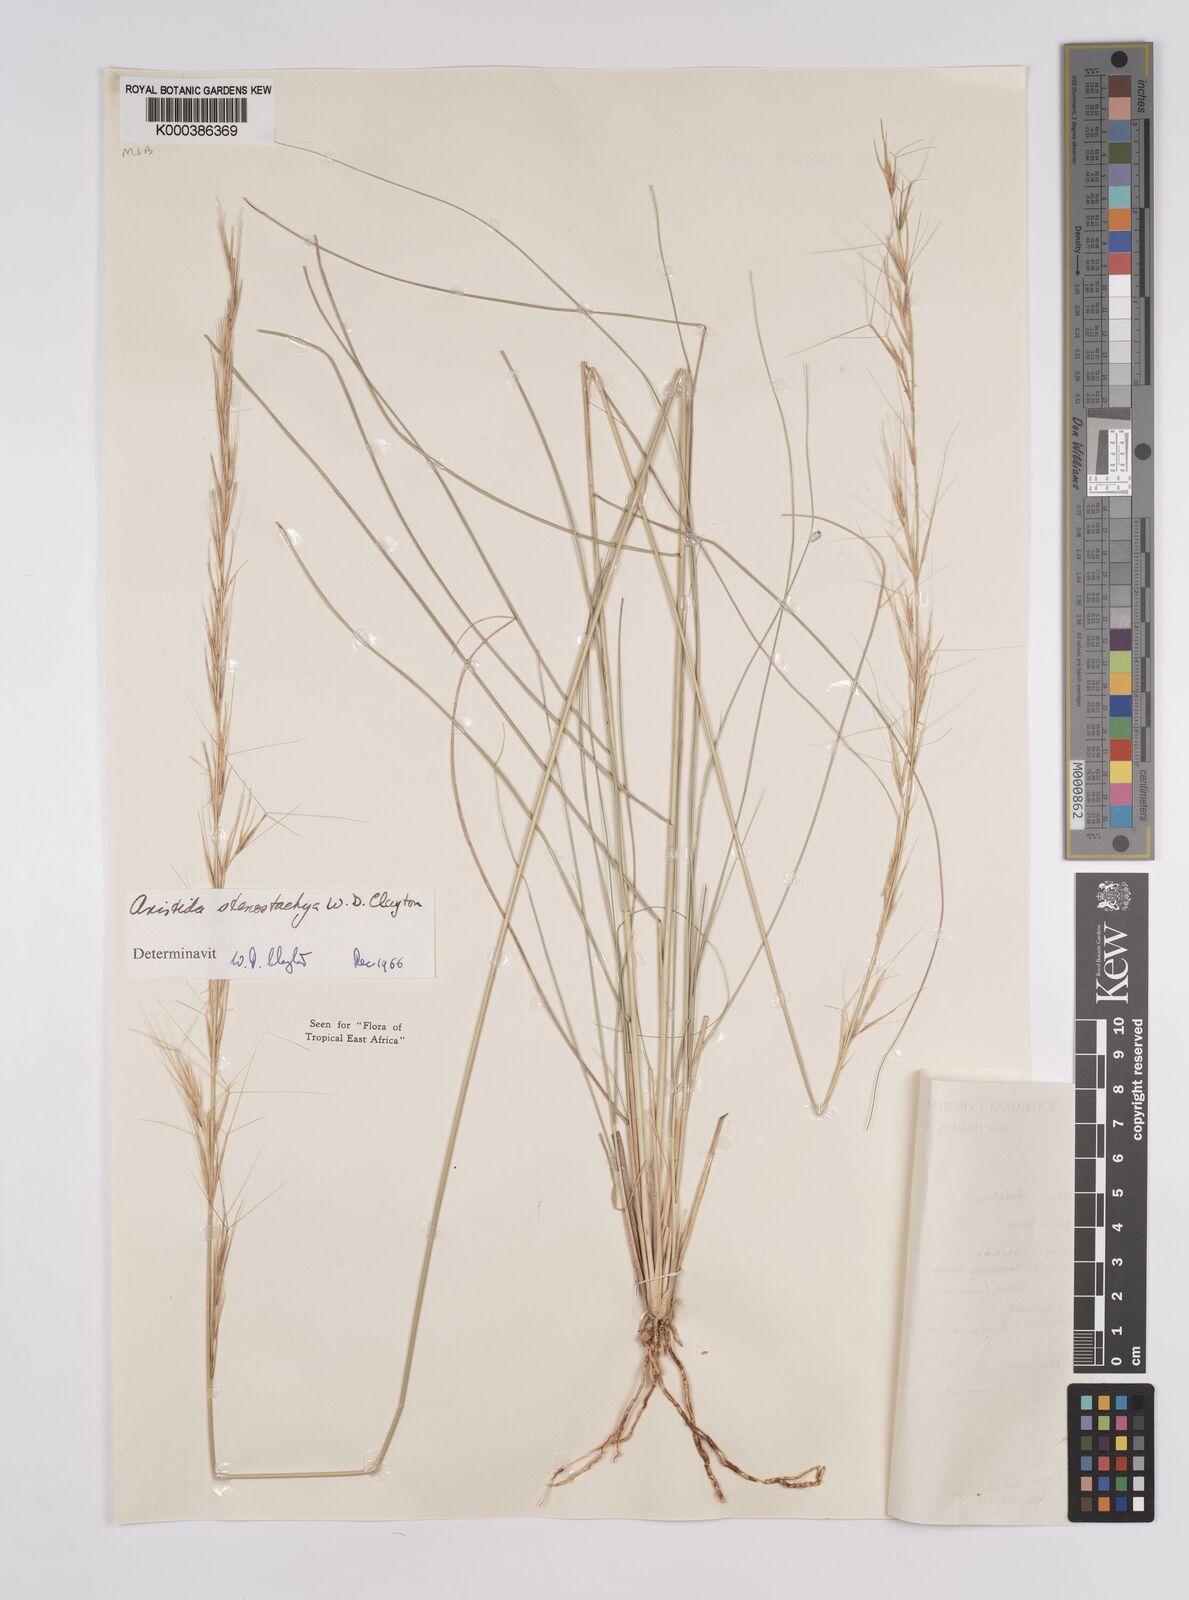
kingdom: Plantae
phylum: Tracheophyta
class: Liliopsida
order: Poales
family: Poaceae
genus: Aristida
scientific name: Aristida stenostachya
